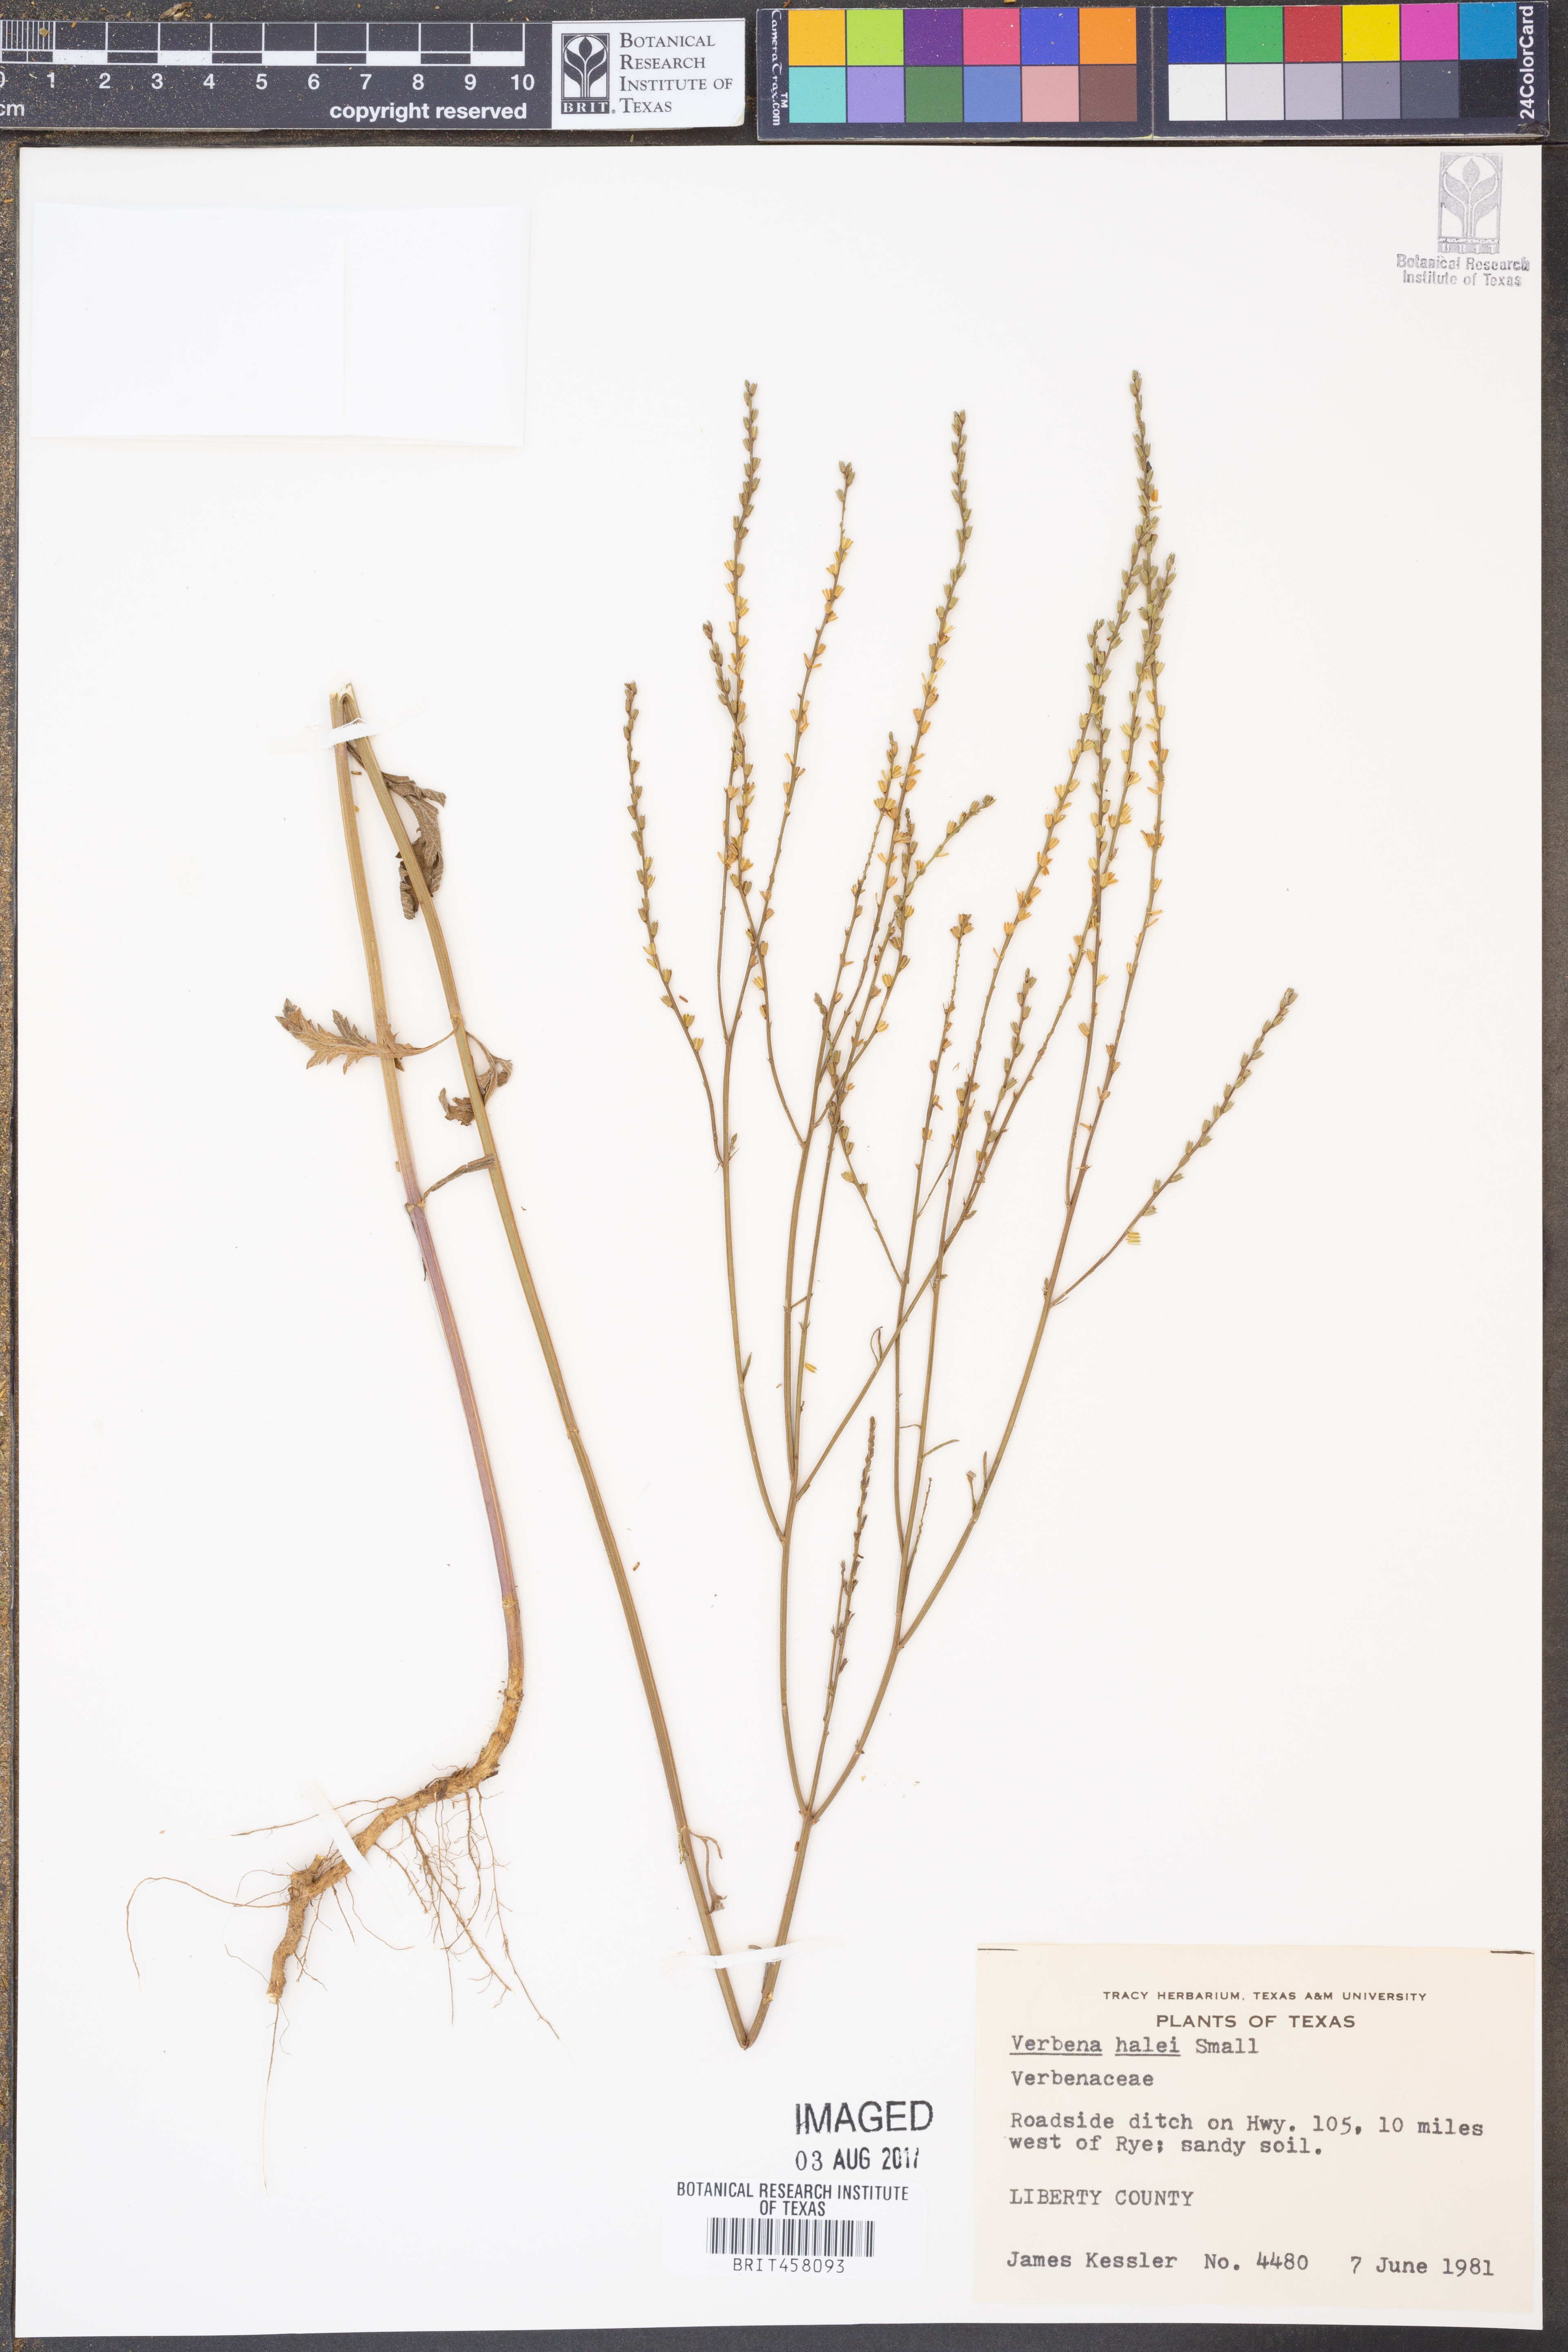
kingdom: Plantae
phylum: Tracheophyta
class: Magnoliopsida
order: Lamiales
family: Verbenaceae
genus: Verbena
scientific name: Verbena halei
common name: Texas vervain
